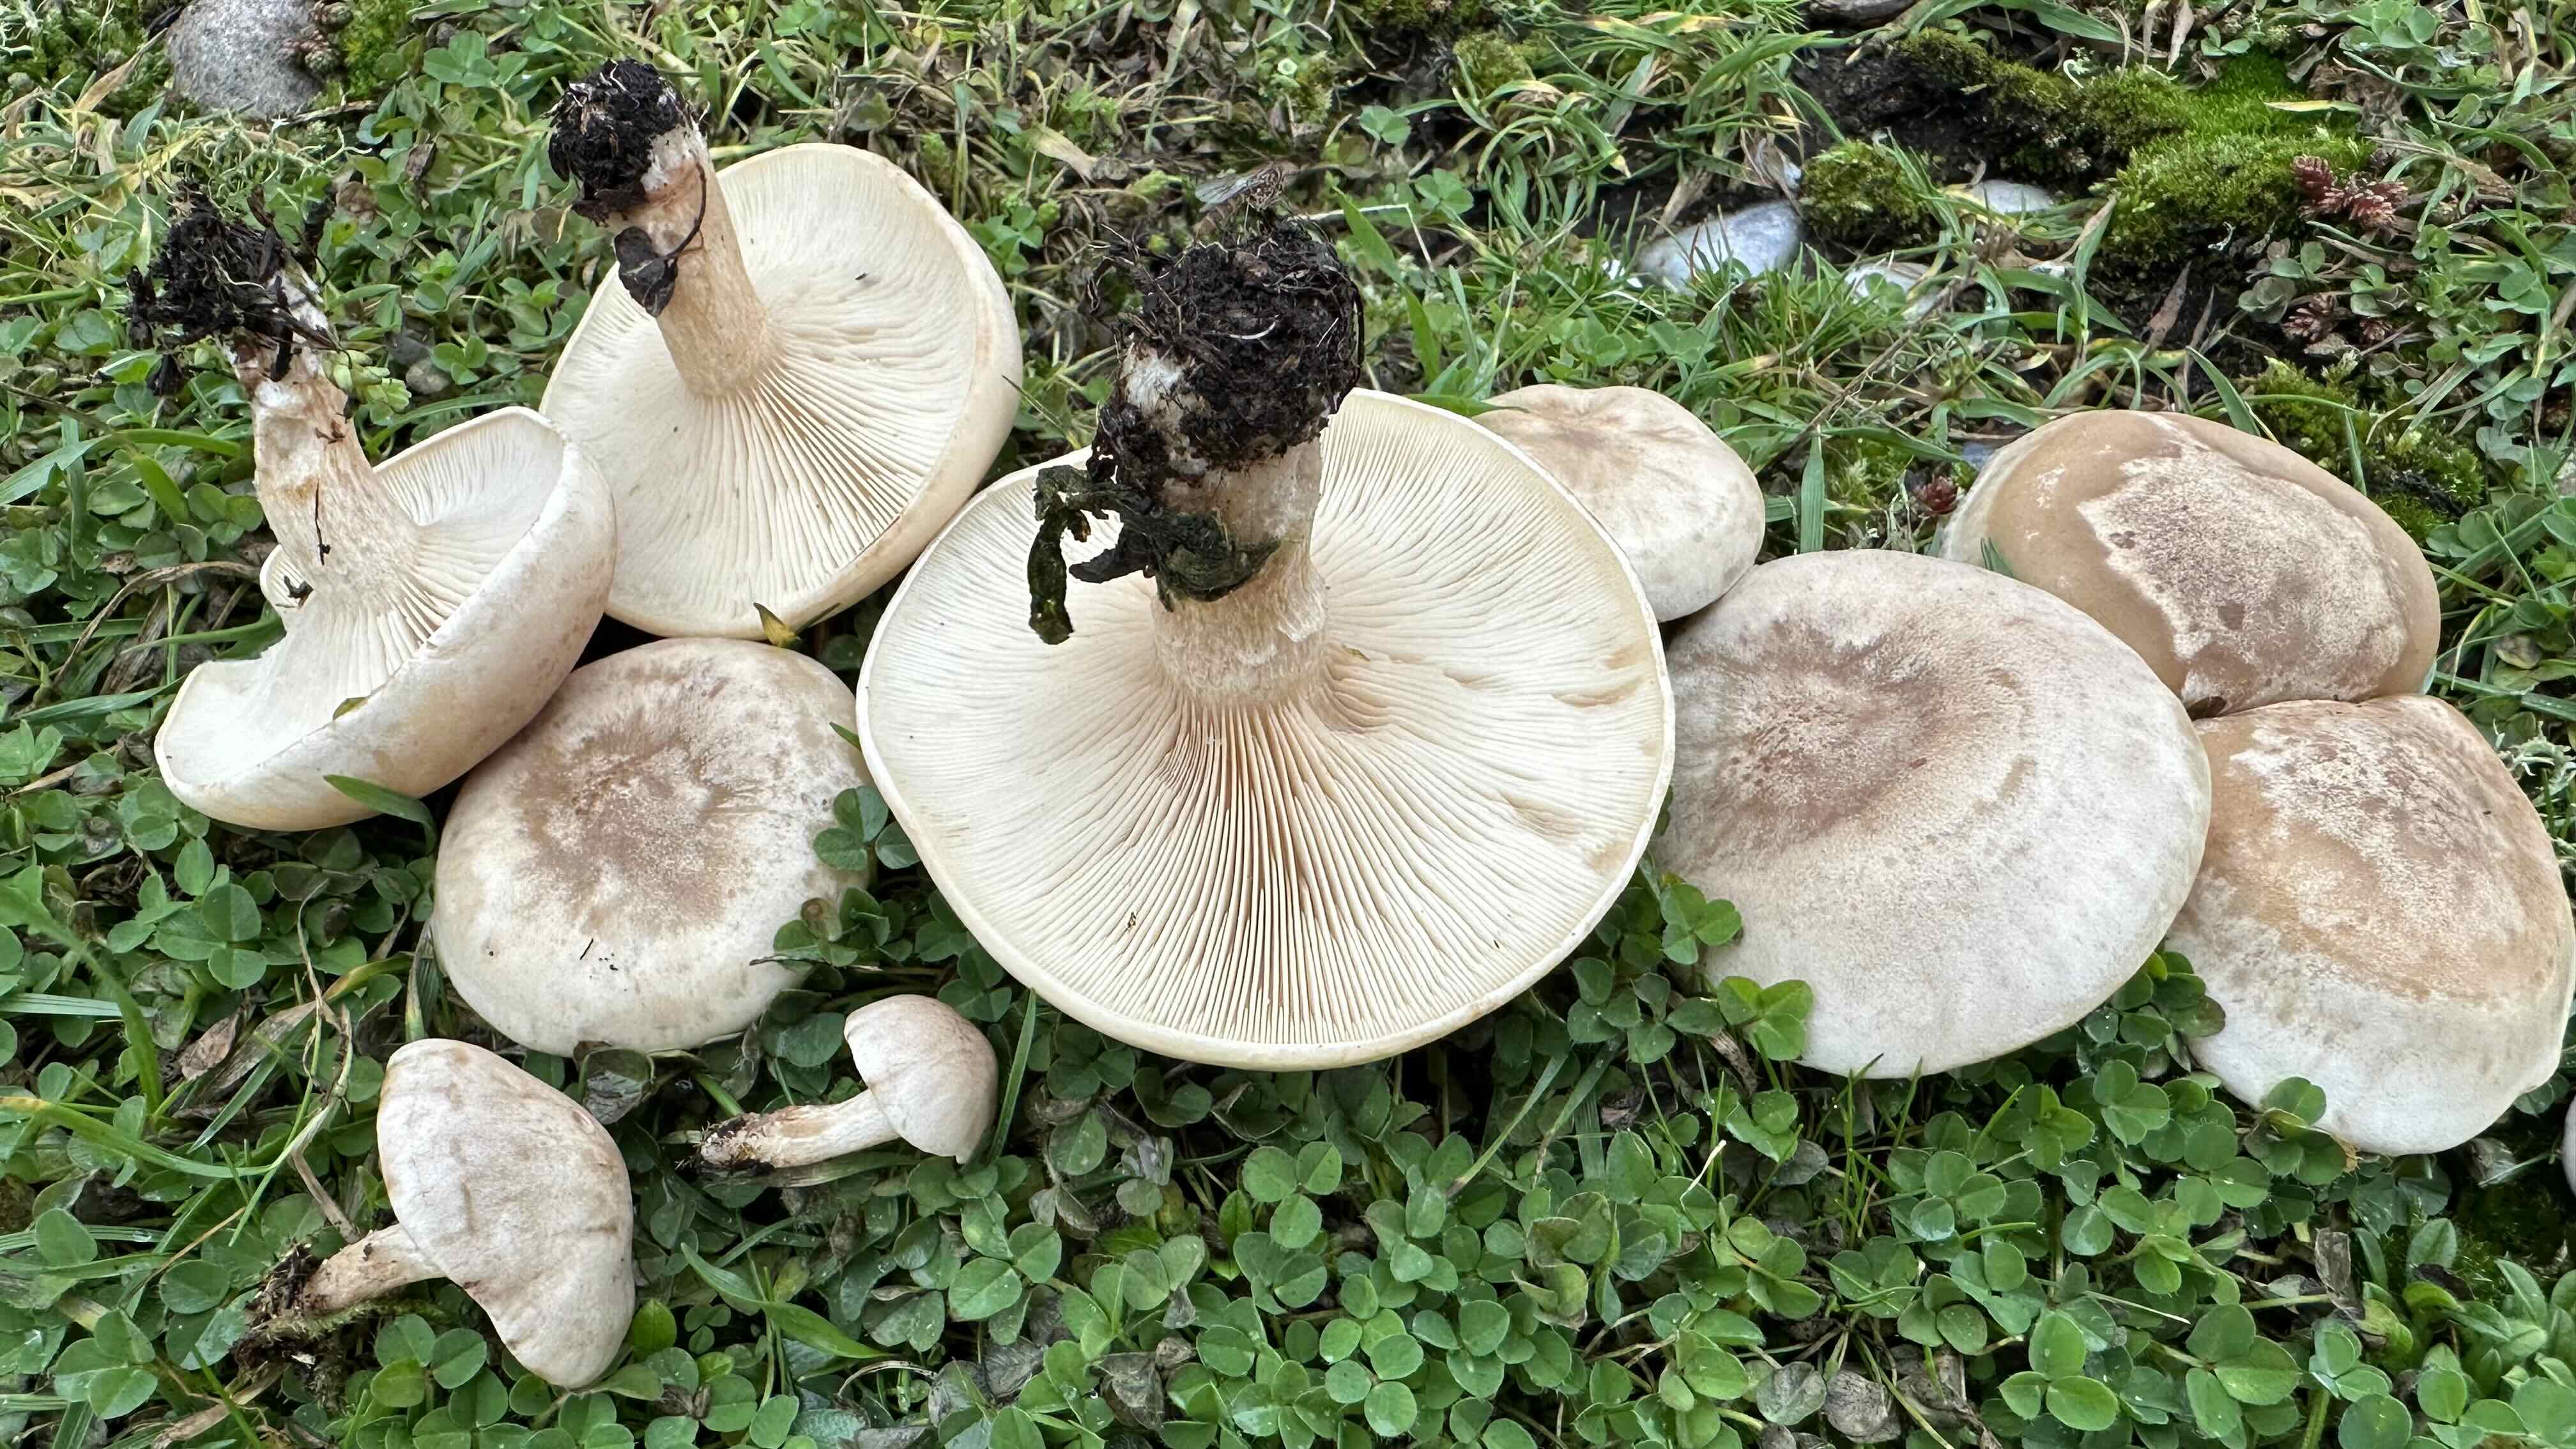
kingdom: Fungi
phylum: Basidiomycota
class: Agaricomycetes
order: Agaricales
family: Tricholomataceae
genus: Lepista
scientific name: Lepista panaeolus
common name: marmoreret hekseringshat
